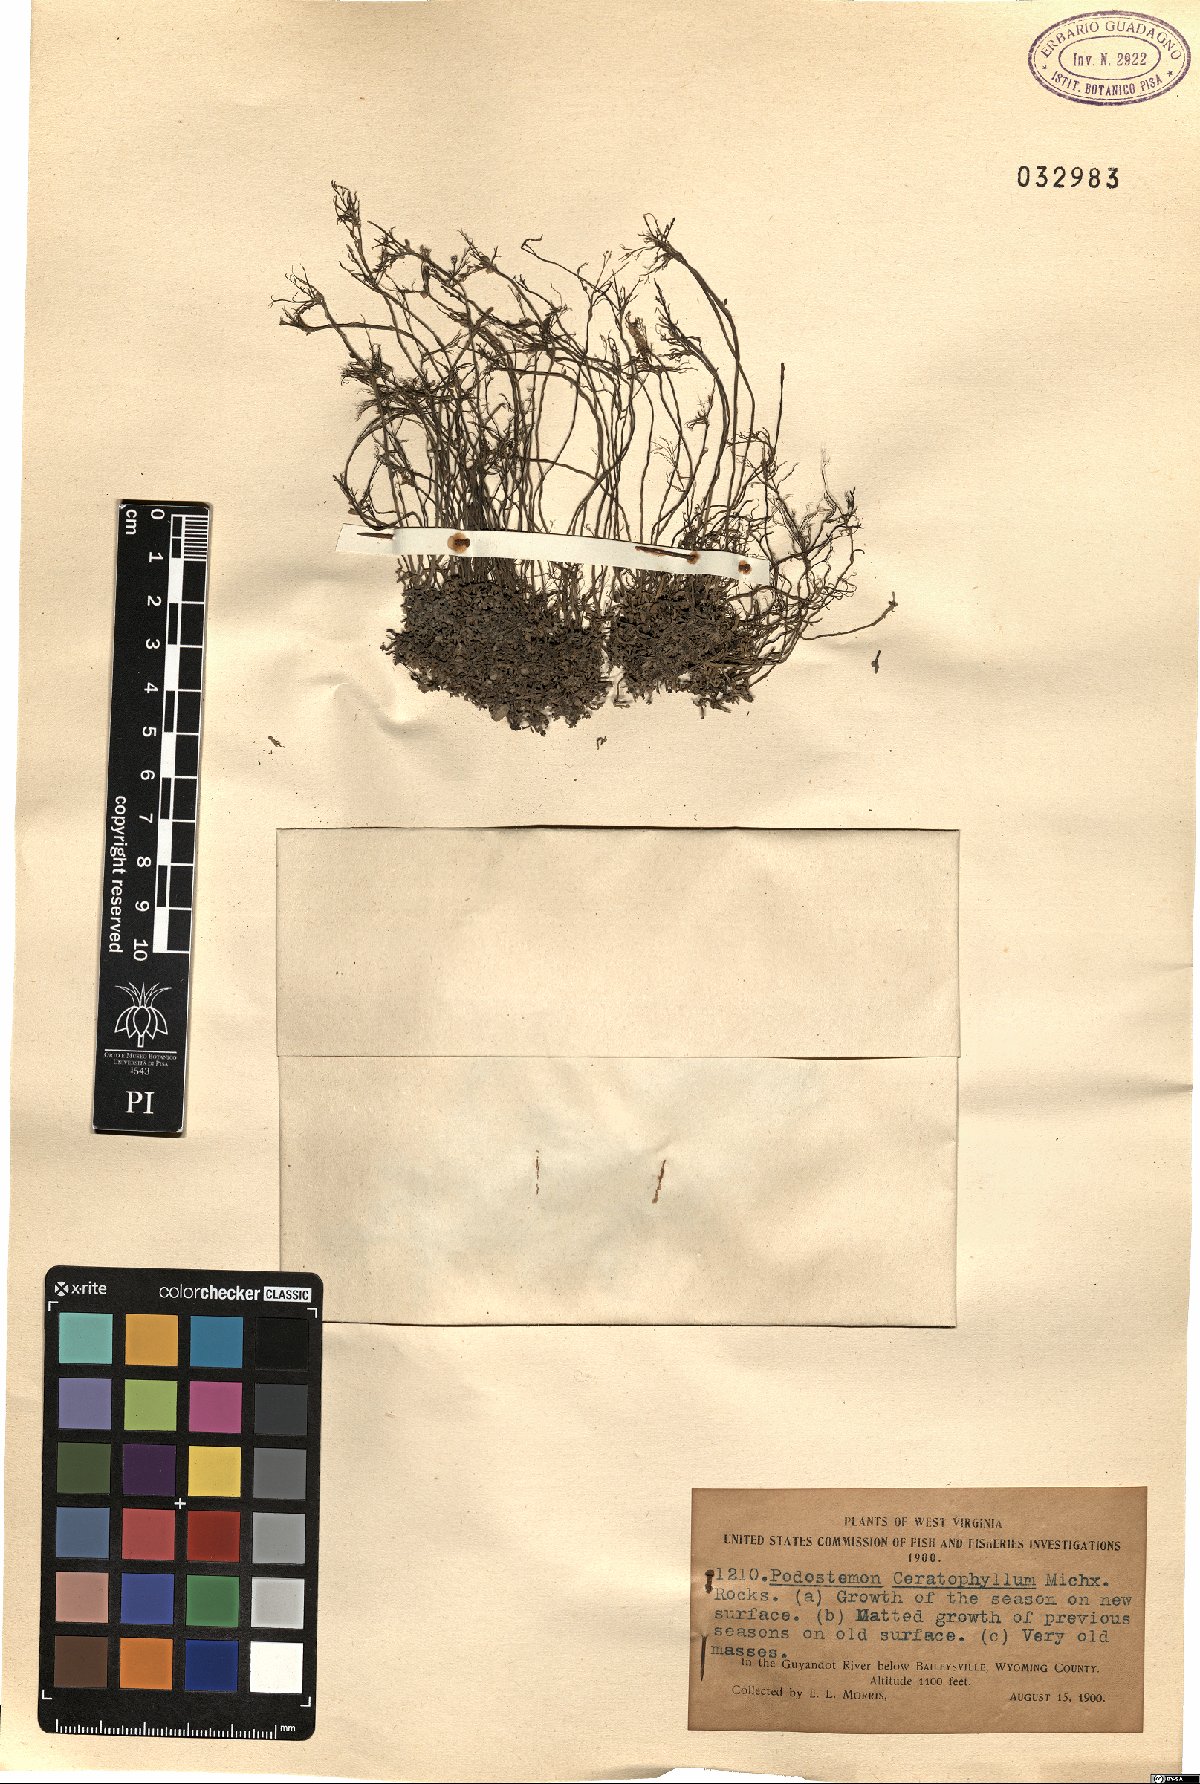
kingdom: Plantae
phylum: Tracheophyta
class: Magnoliopsida
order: Malpighiales
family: Podostemaceae
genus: Podostemum
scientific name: Podostemum ceratophyllum
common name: Horn-leaved riverweed
